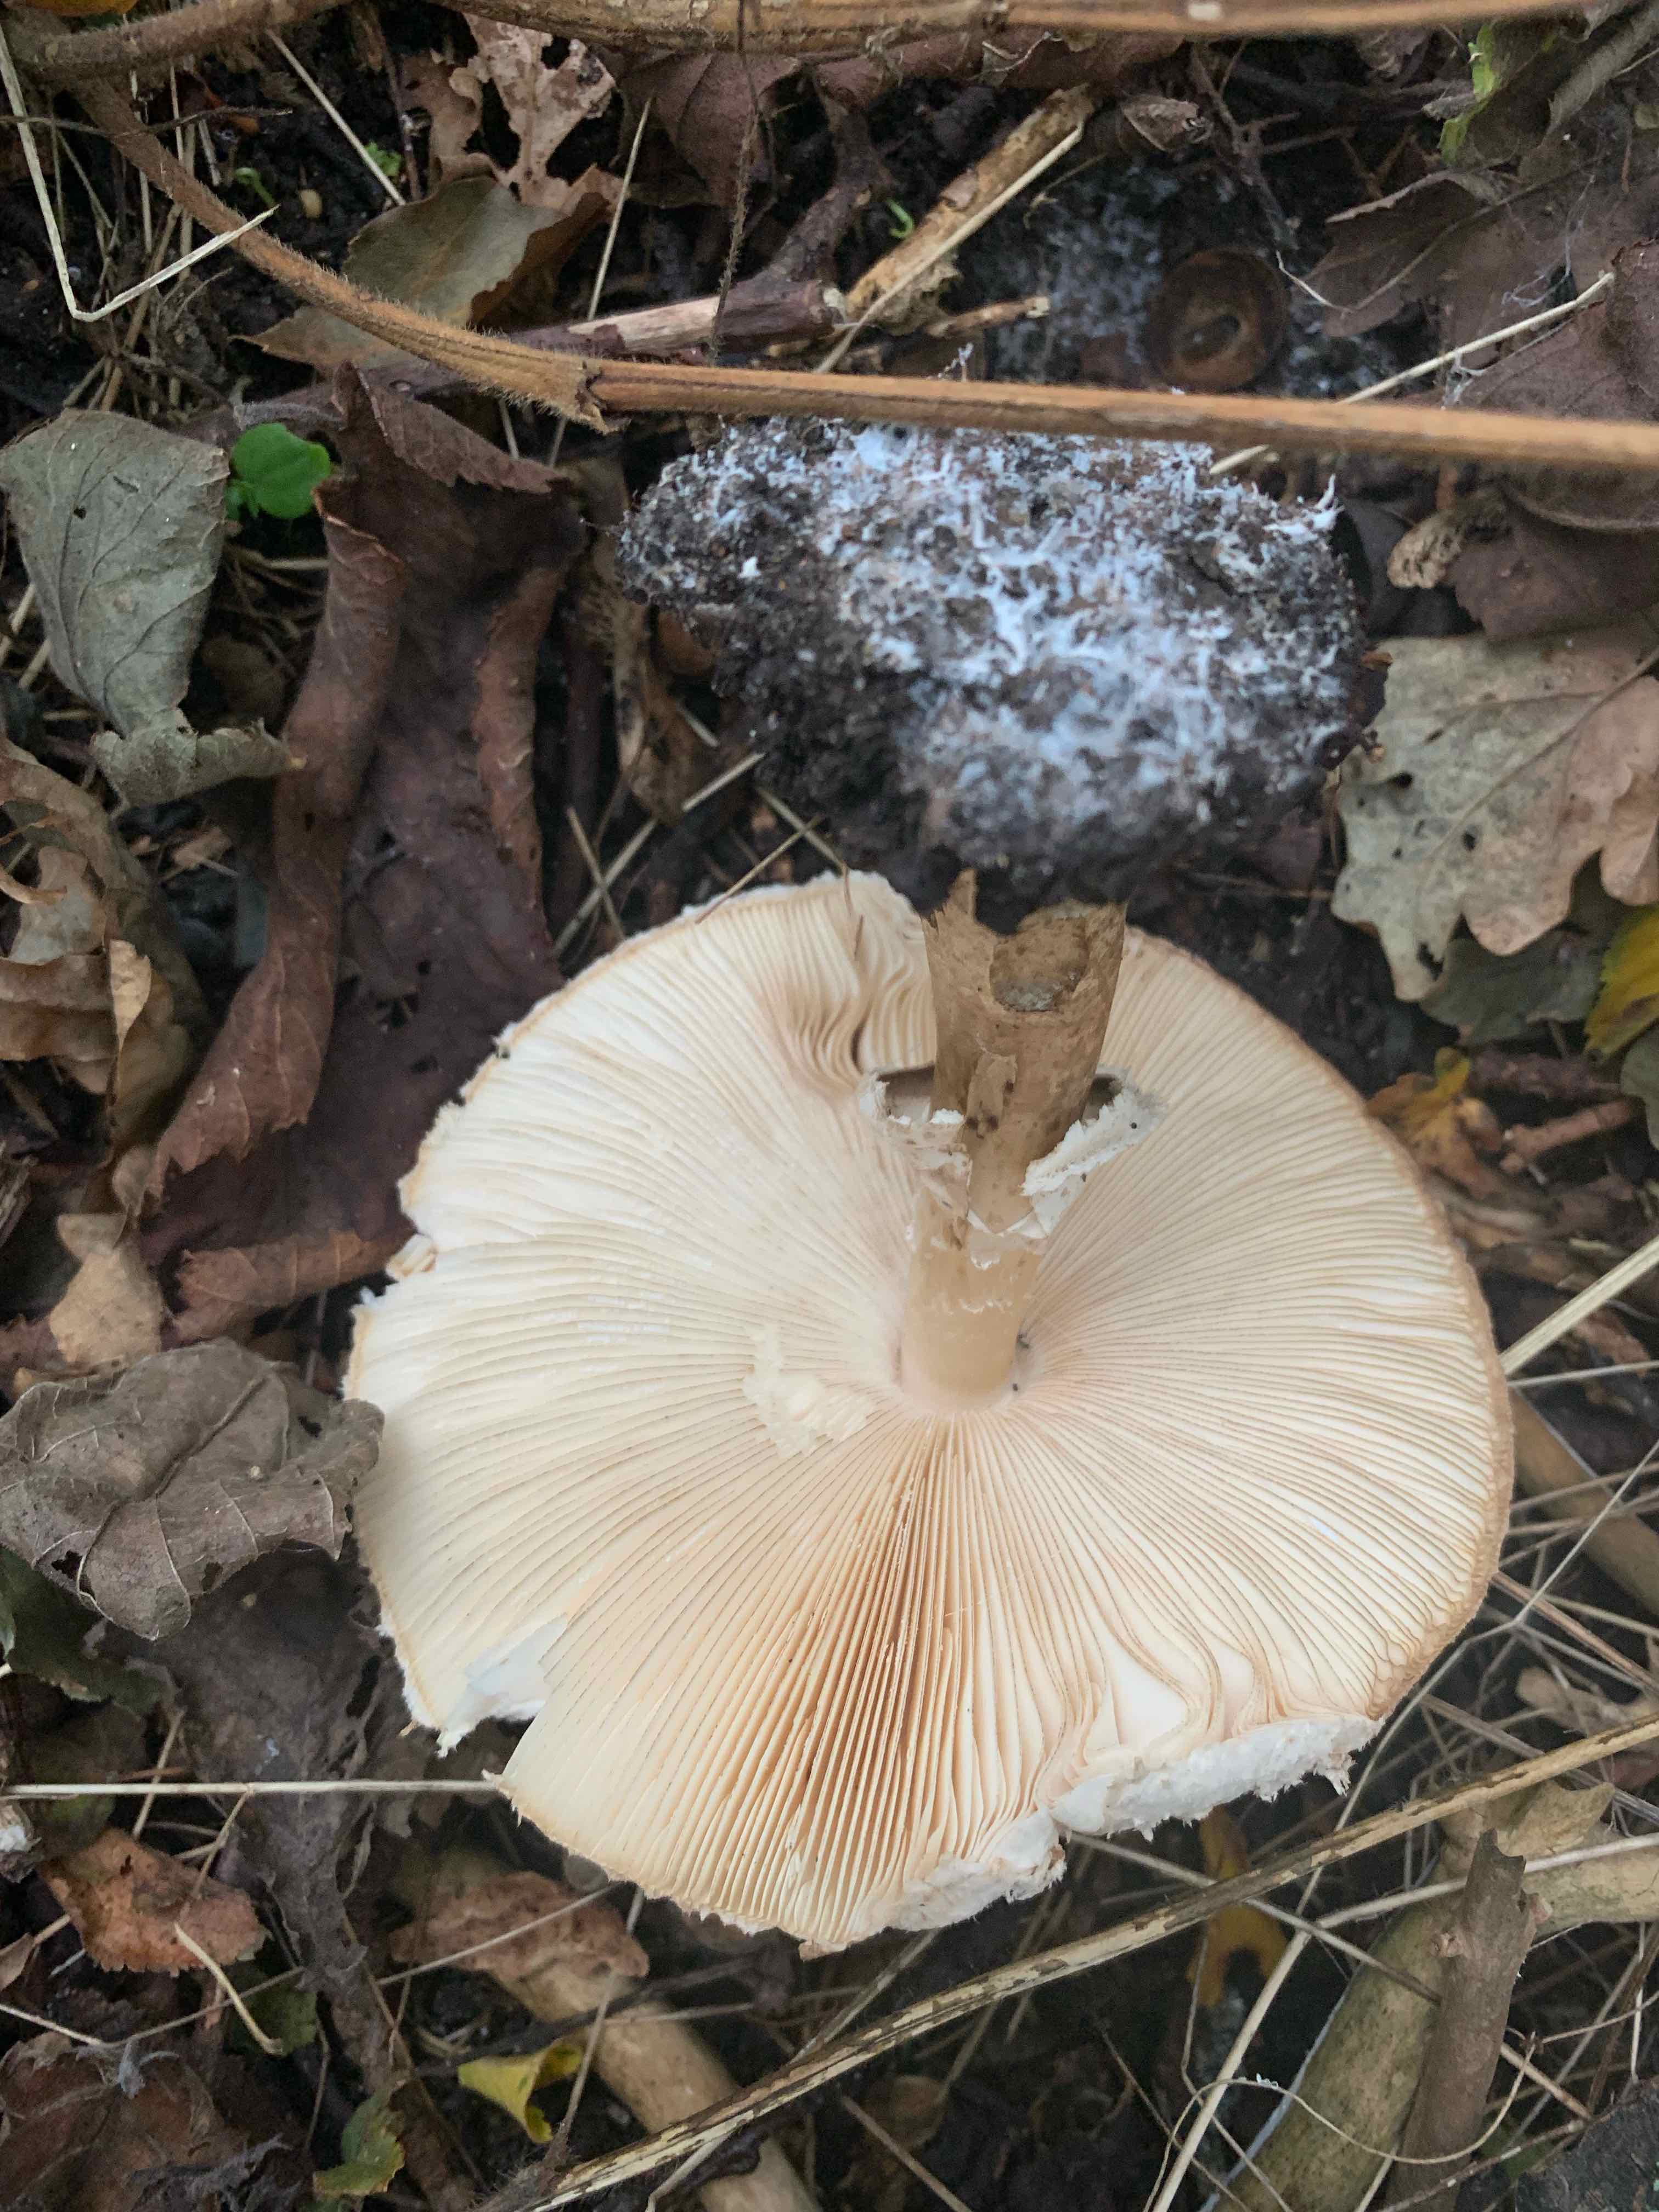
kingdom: Fungi
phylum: Basidiomycota
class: Agaricomycetes
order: Agaricales
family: Agaricaceae
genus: Chlorophyllum
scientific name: Chlorophyllum brunneum
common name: giftig rabarberhat
